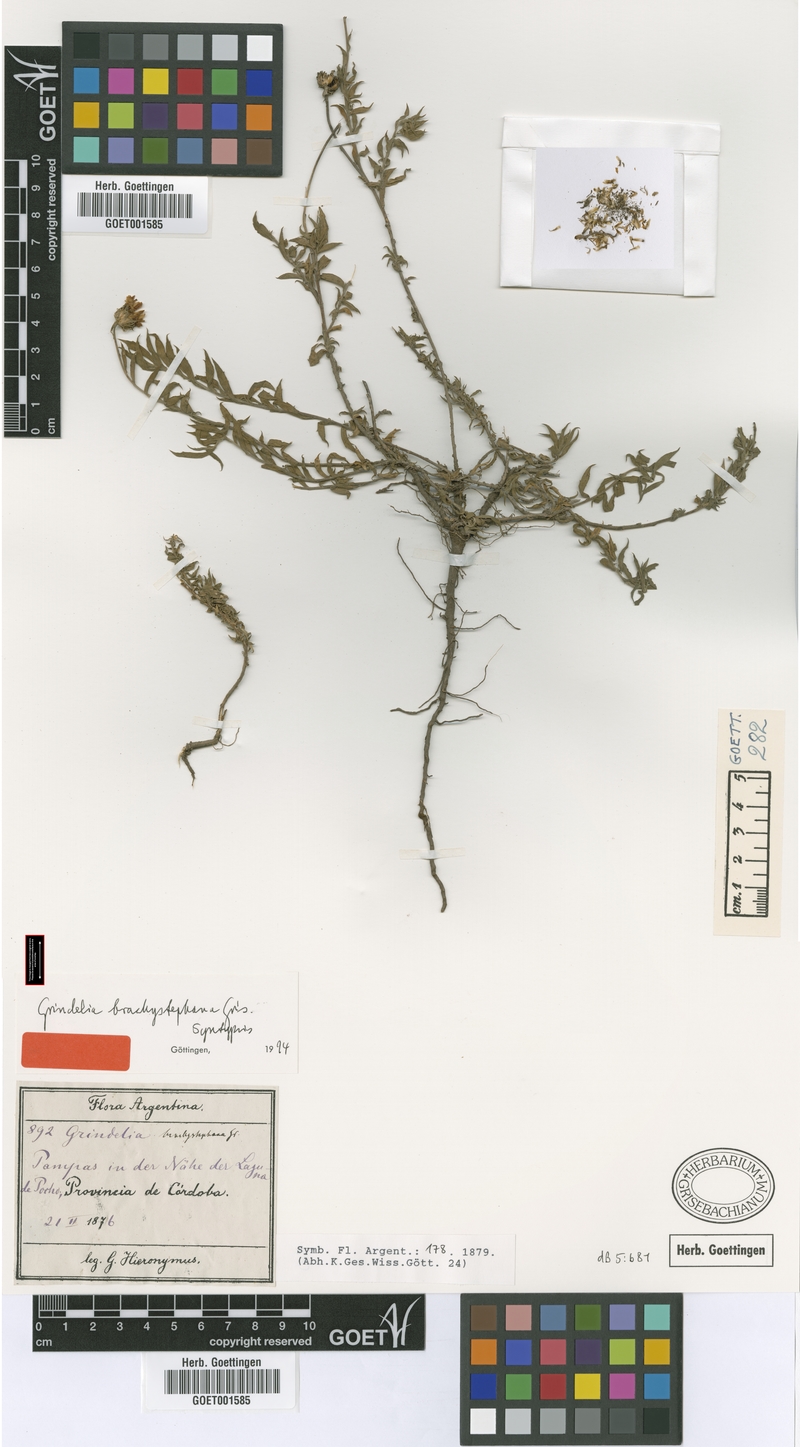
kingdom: Plantae
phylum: Tracheophyta
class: Magnoliopsida
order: Asterales
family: Asteraceae
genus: Grindelia
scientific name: Grindelia brachystephana
